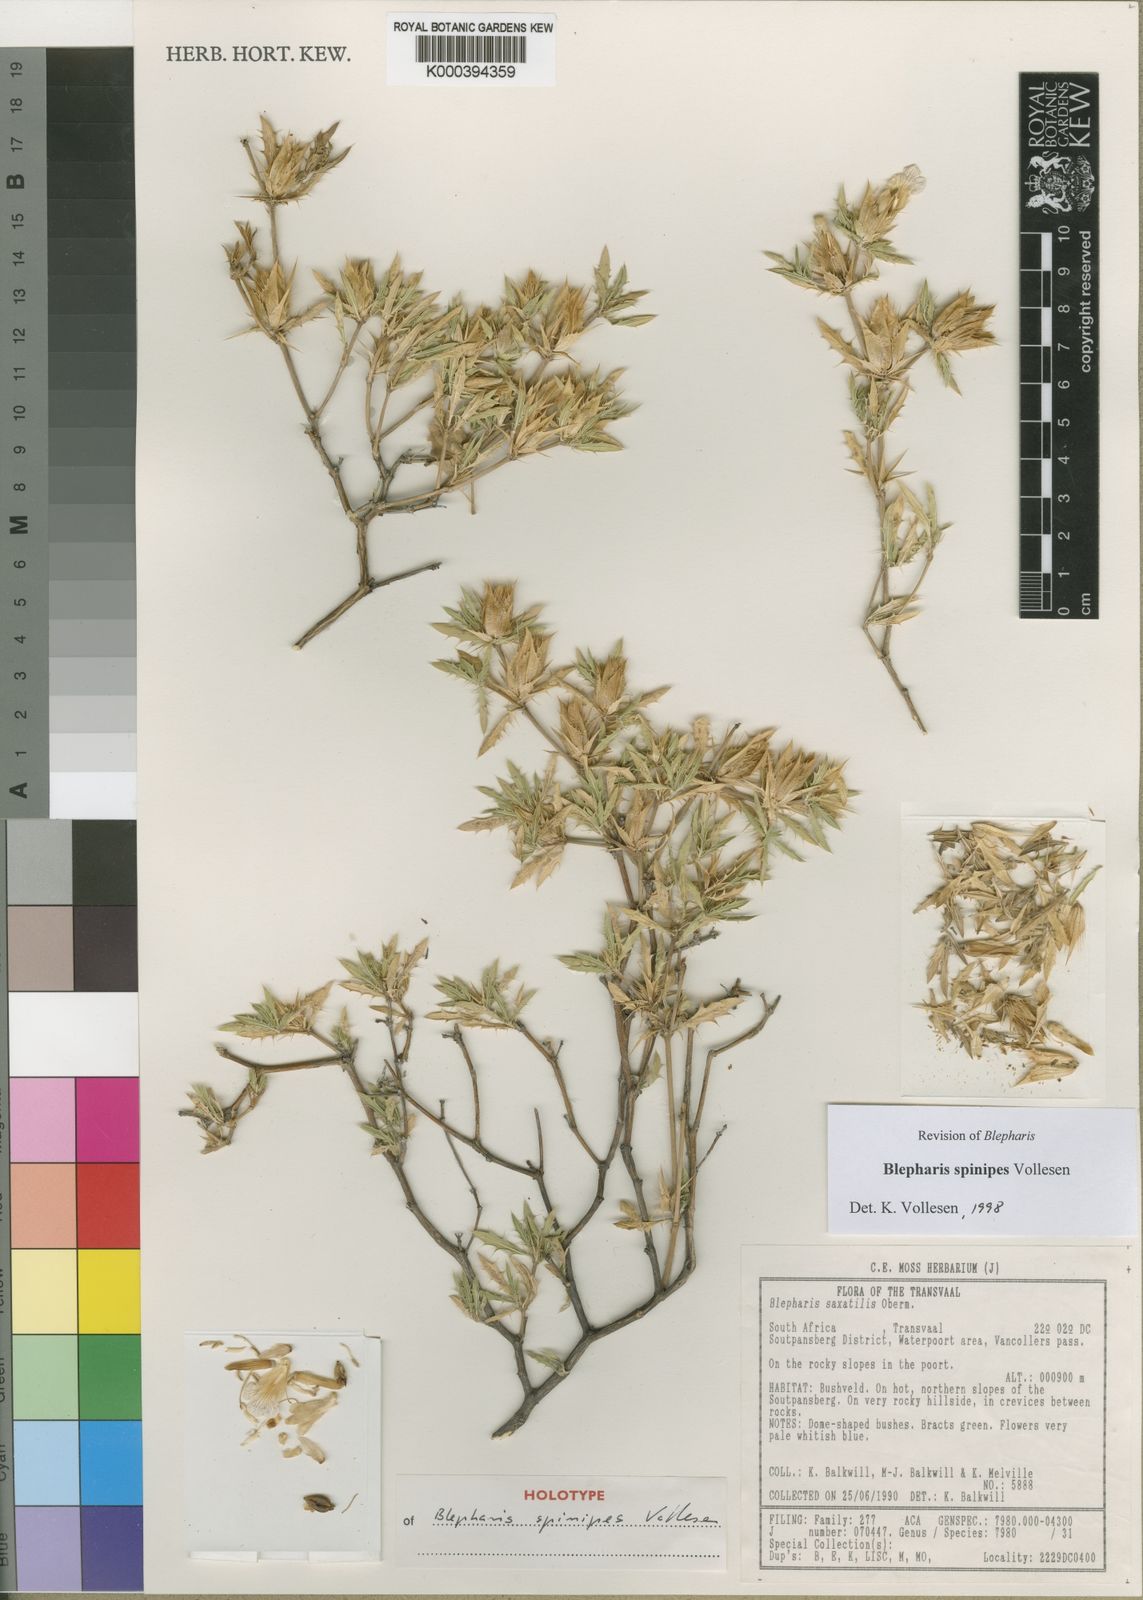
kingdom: Plantae
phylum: Tracheophyta
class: Magnoliopsida
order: Lamiales
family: Acanthaceae
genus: Blepharis
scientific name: Blepharis spinipes
